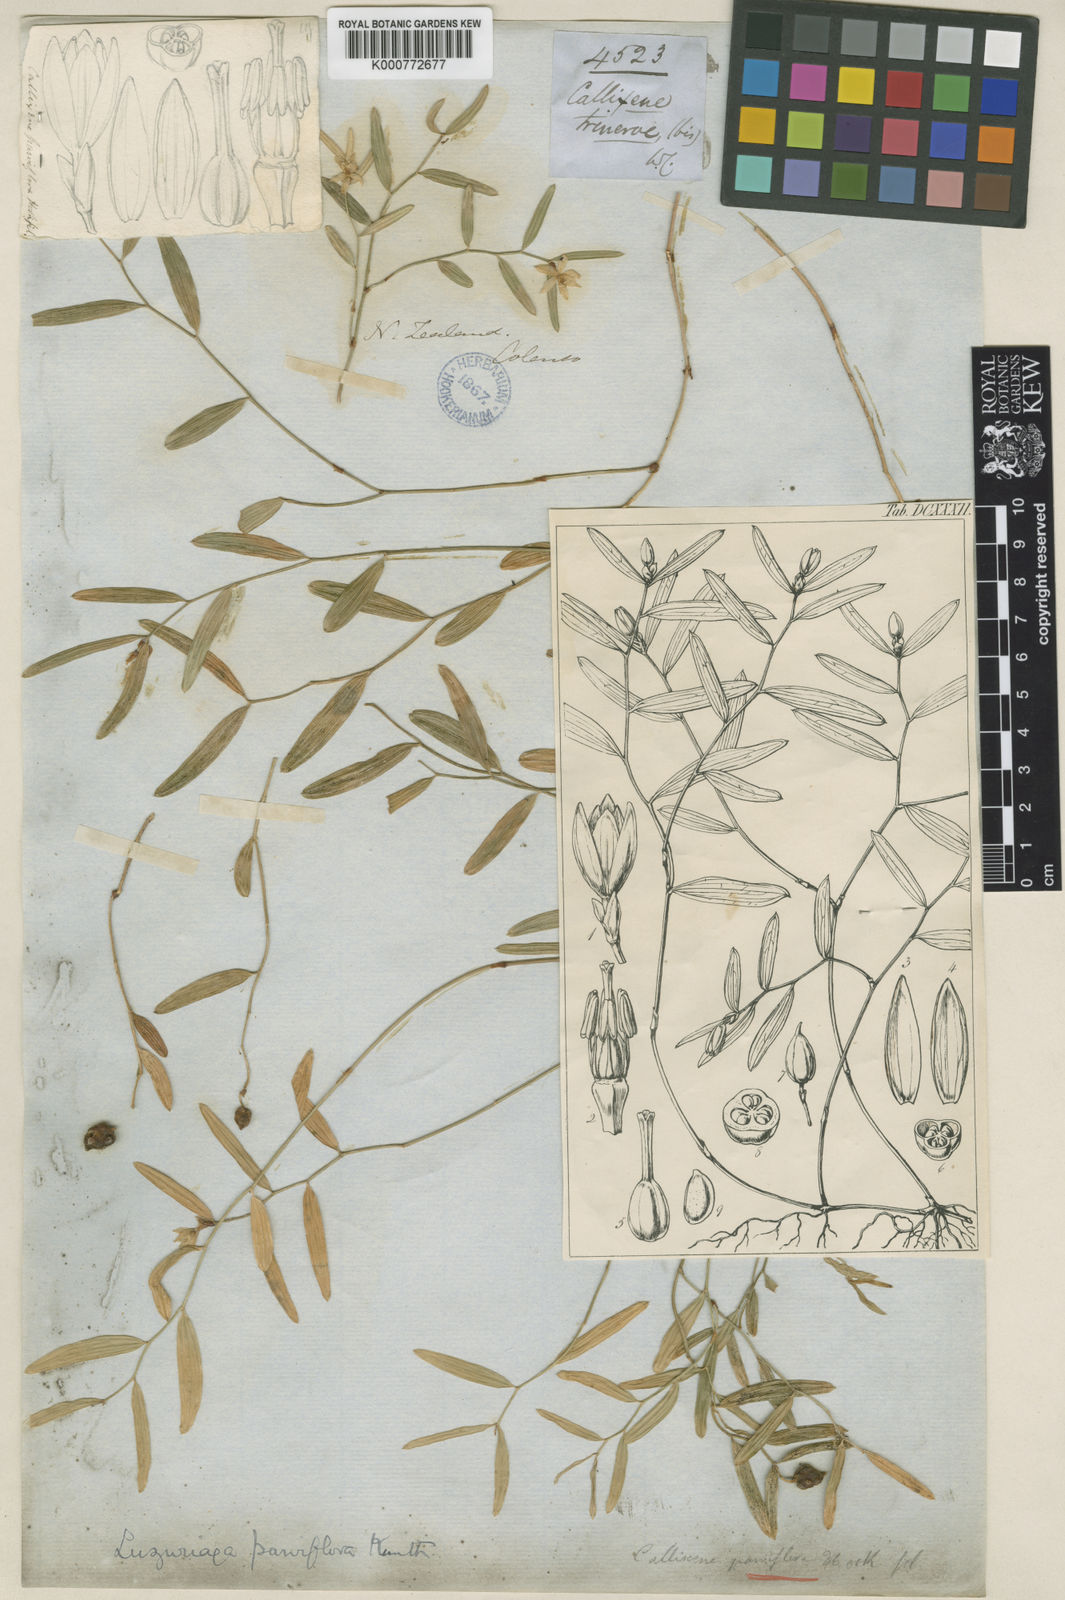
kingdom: Plantae
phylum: Tracheophyta
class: Liliopsida
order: Liliales
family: Alstroemeriaceae
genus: Luzuriaga
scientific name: Luzuriaga parviflora
